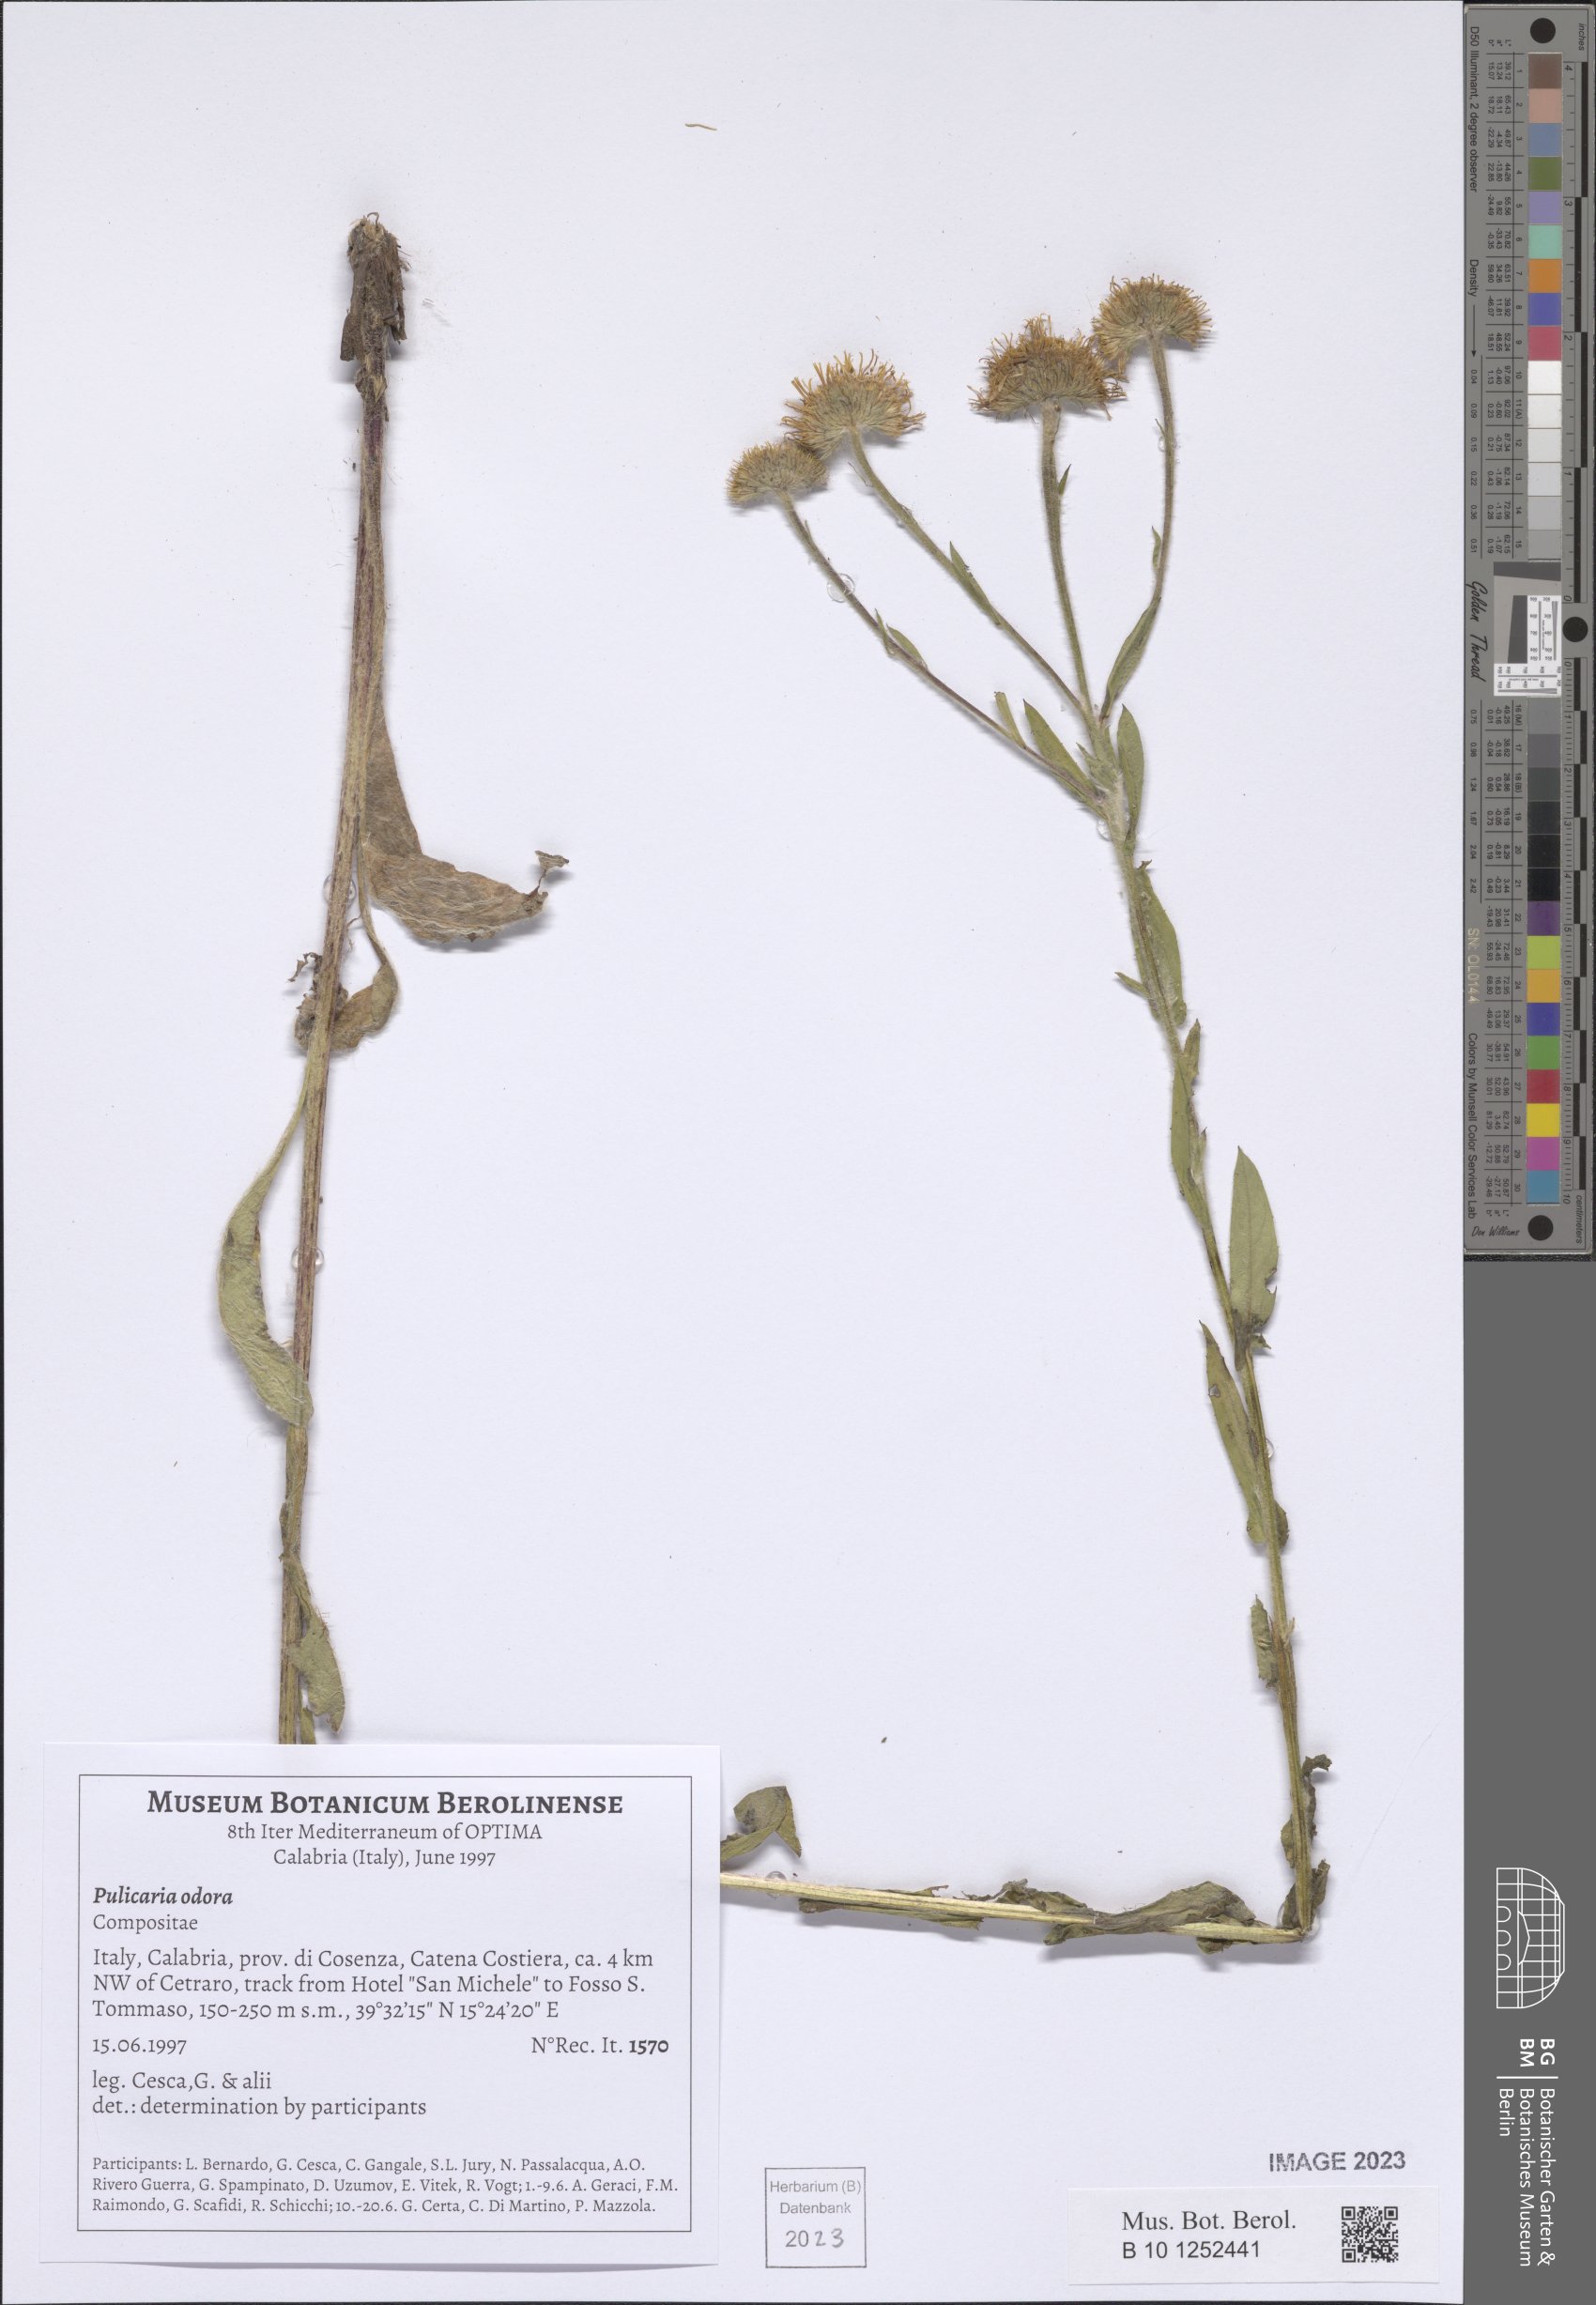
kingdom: Plantae
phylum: Tracheophyta
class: Magnoliopsida
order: Asterales
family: Asteraceae
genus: Pulicaria
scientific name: Pulicaria odora
